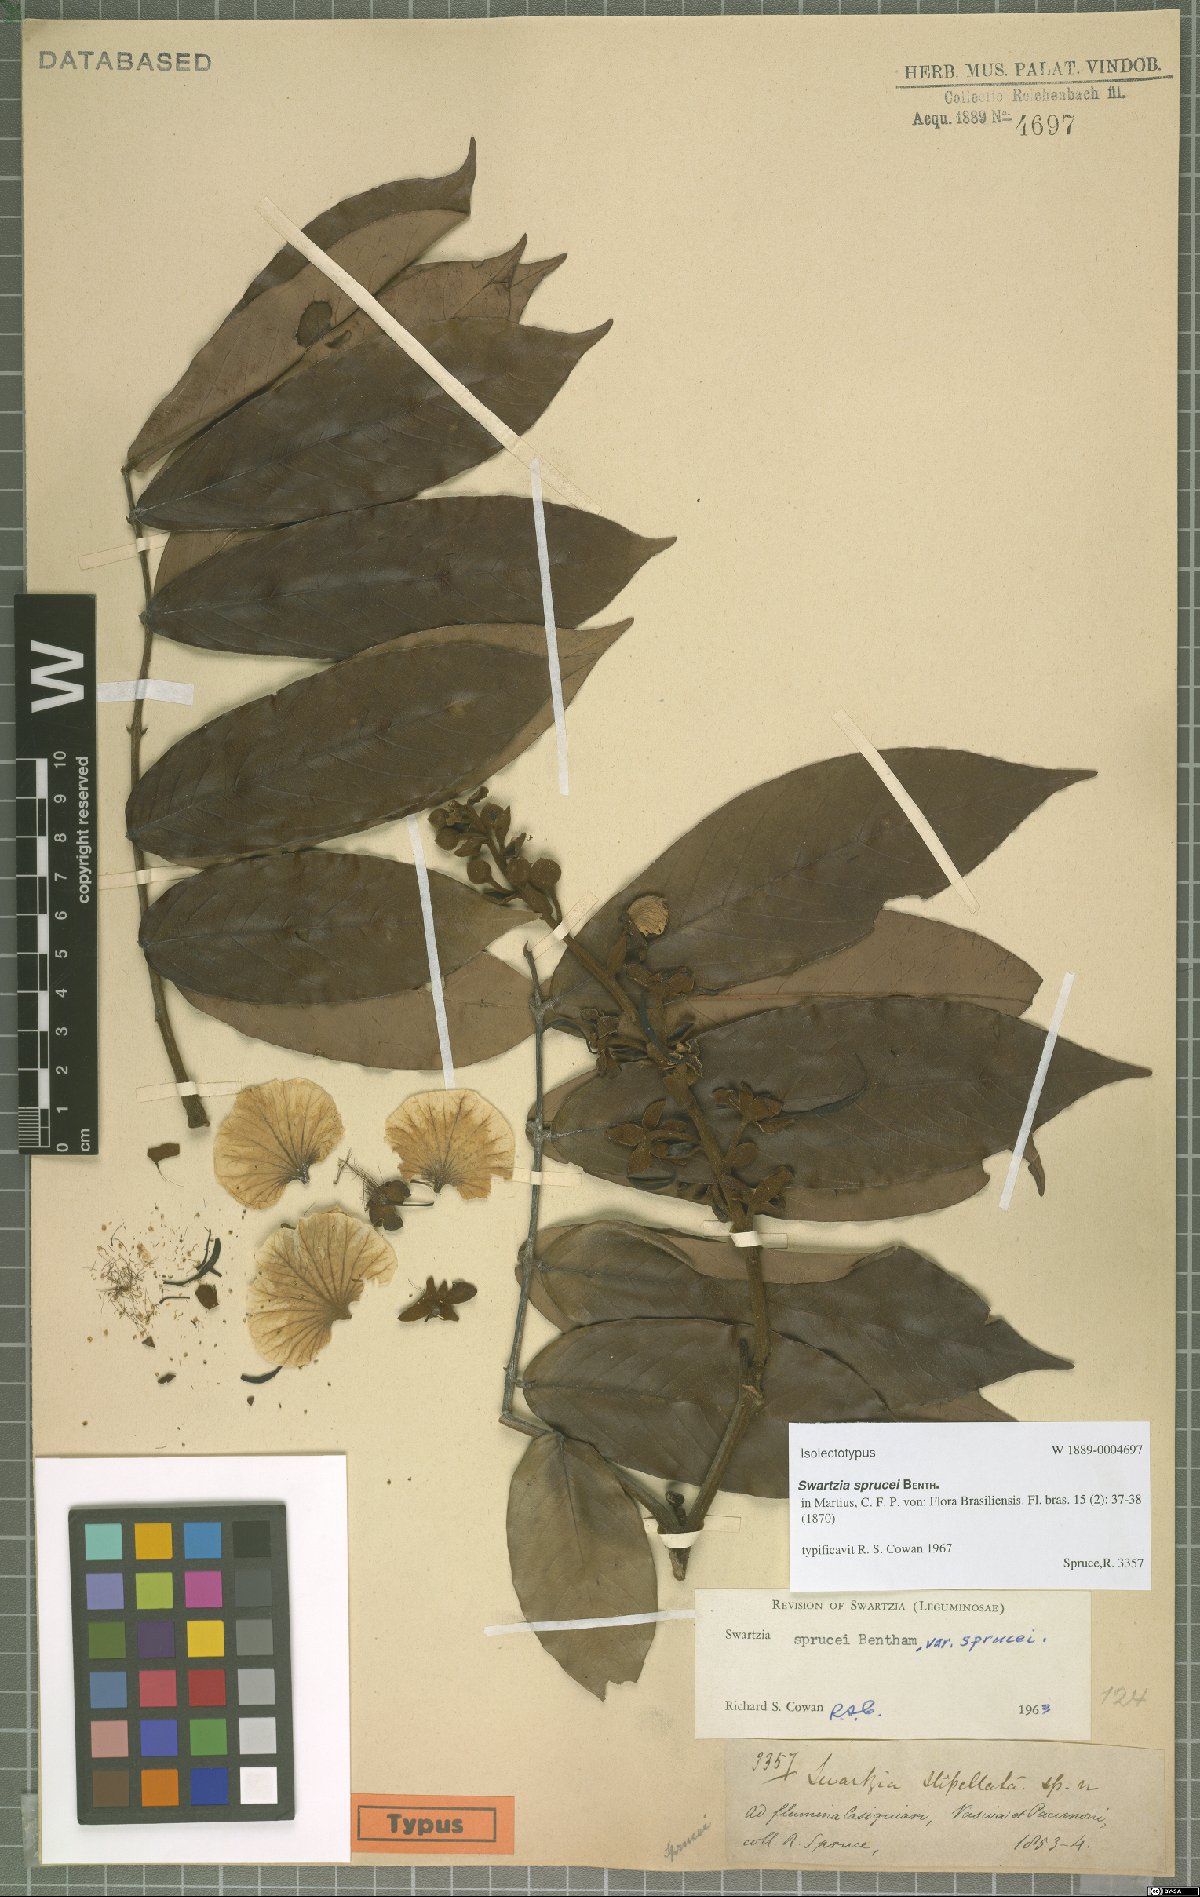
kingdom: Plantae
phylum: Tracheophyta
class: Magnoliopsida
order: Fabales
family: Fabaceae
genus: Swartzia
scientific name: Swartzia sprucei
